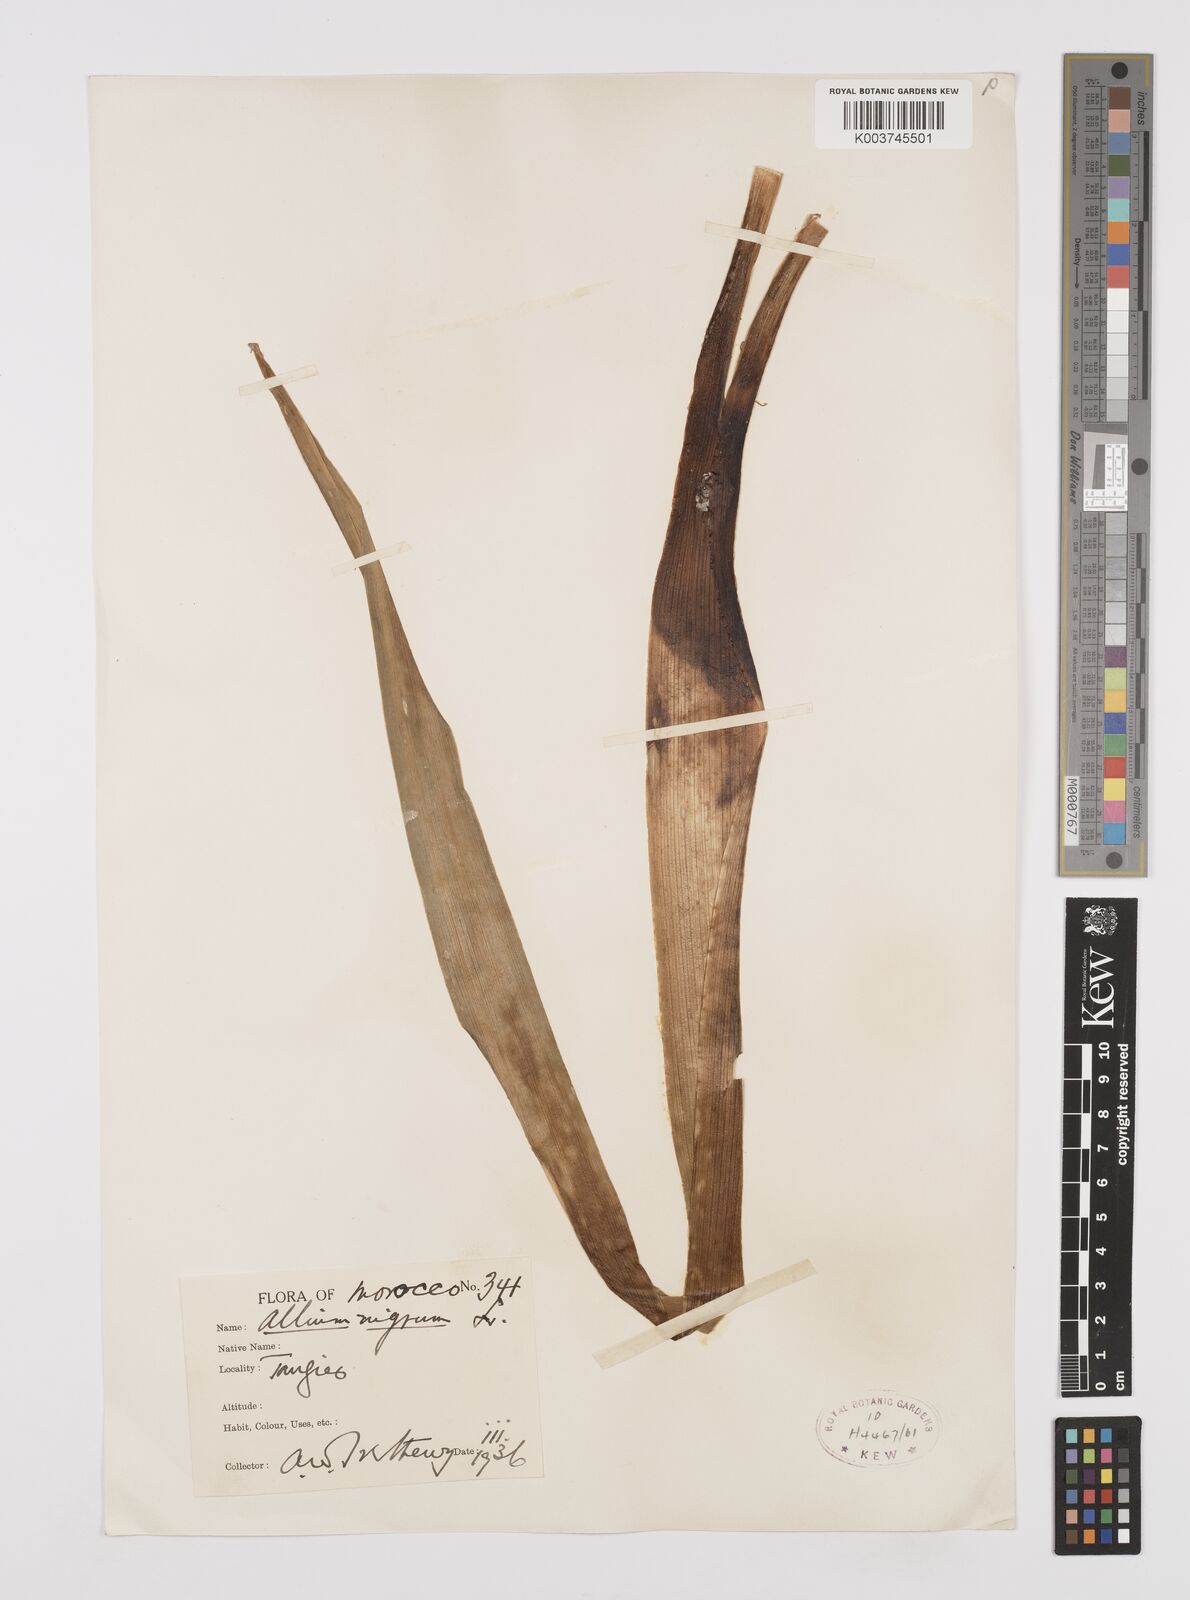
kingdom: Plantae
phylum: Tracheophyta
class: Liliopsida
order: Asparagales
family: Amaryllidaceae
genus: Allium
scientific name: Allium nigrum
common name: Black garlic
